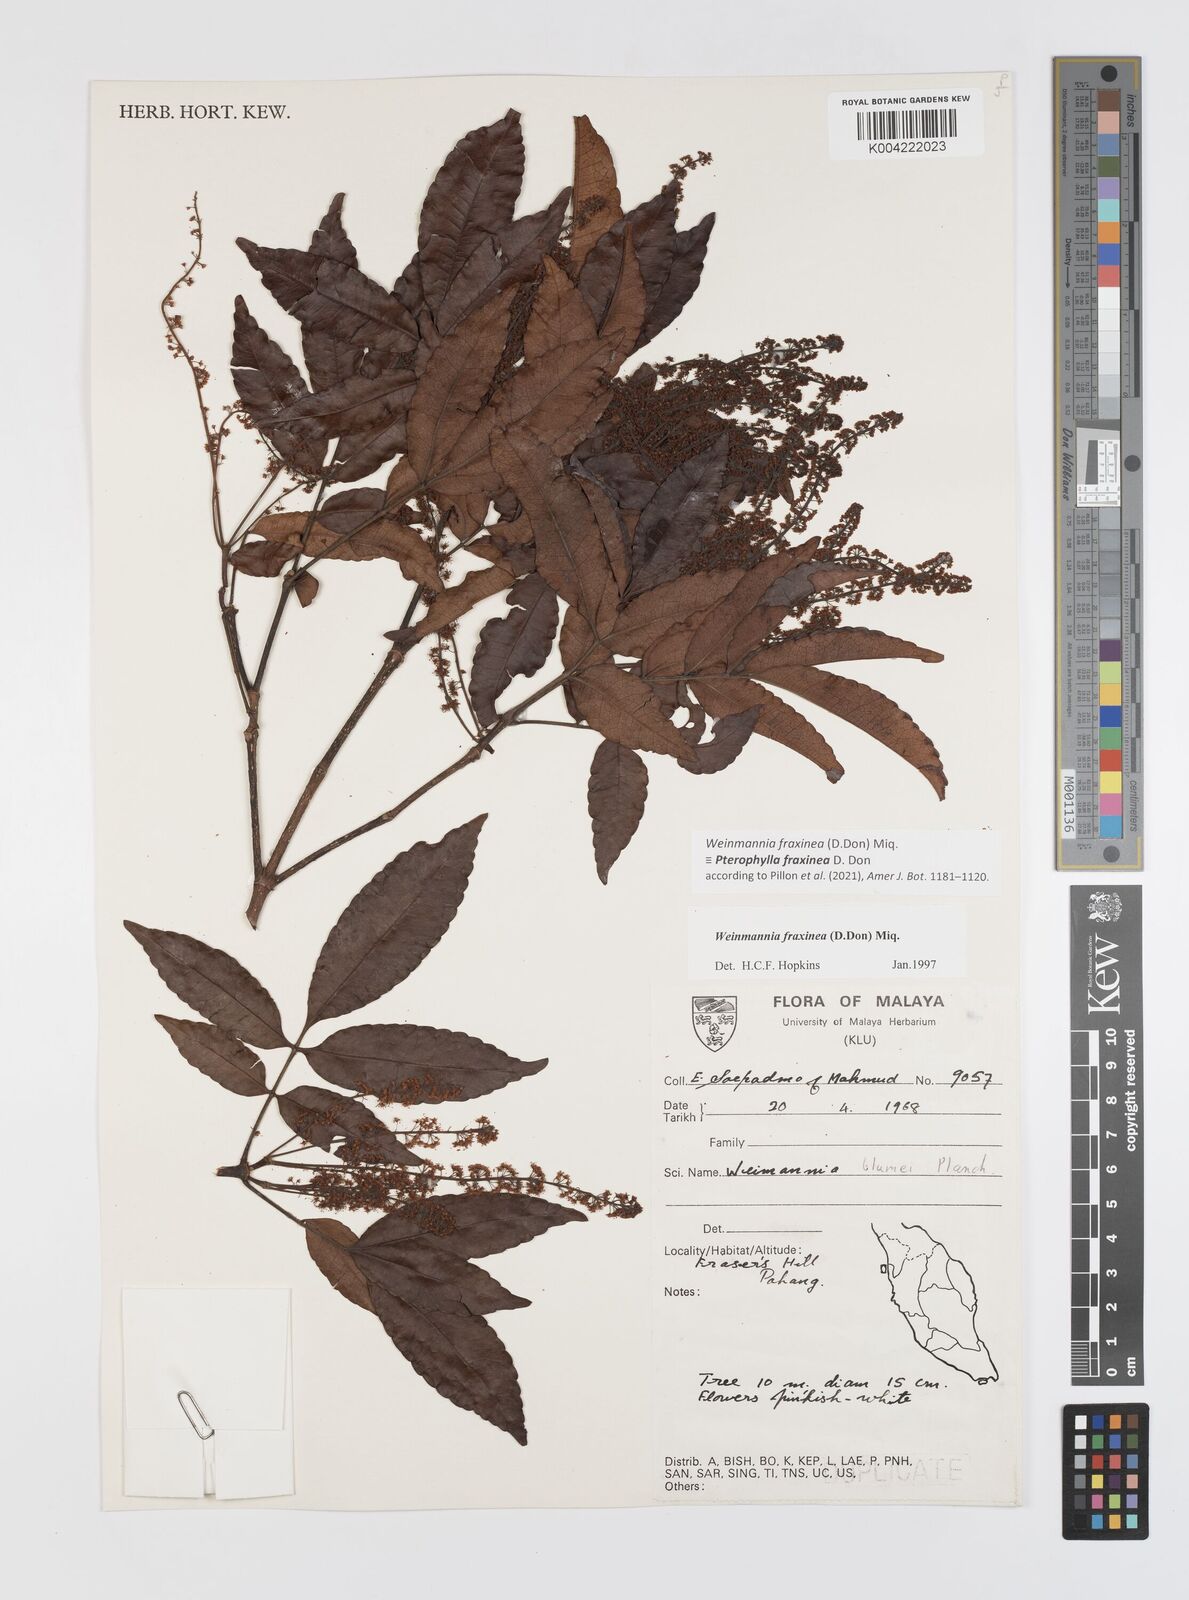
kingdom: Plantae
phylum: Tracheophyta
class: Magnoliopsida
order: Oxalidales
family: Cunoniaceae
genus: Pterophylla
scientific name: Pterophylla fraxinea
